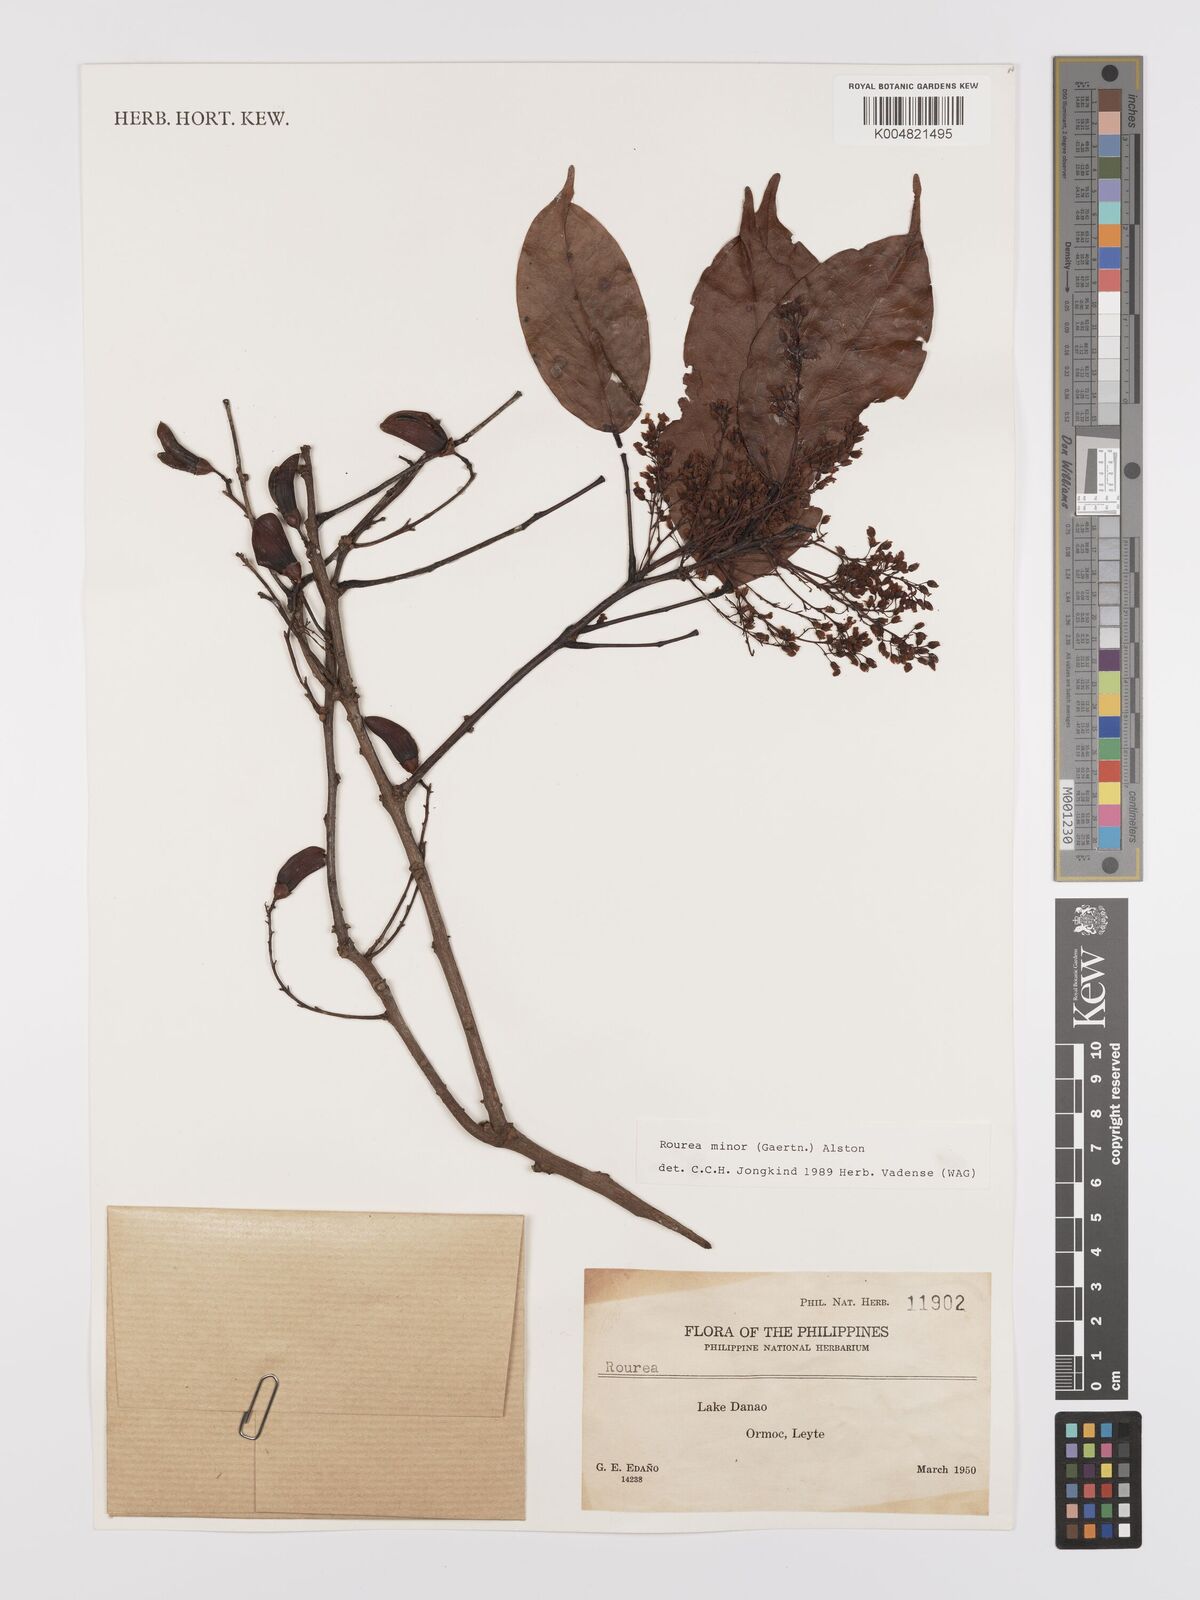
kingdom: Plantae
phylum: Tracheophyta
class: Magnoliopsida
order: Oxalidales
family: Connaraceae
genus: Rourea
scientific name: Rourea minor
